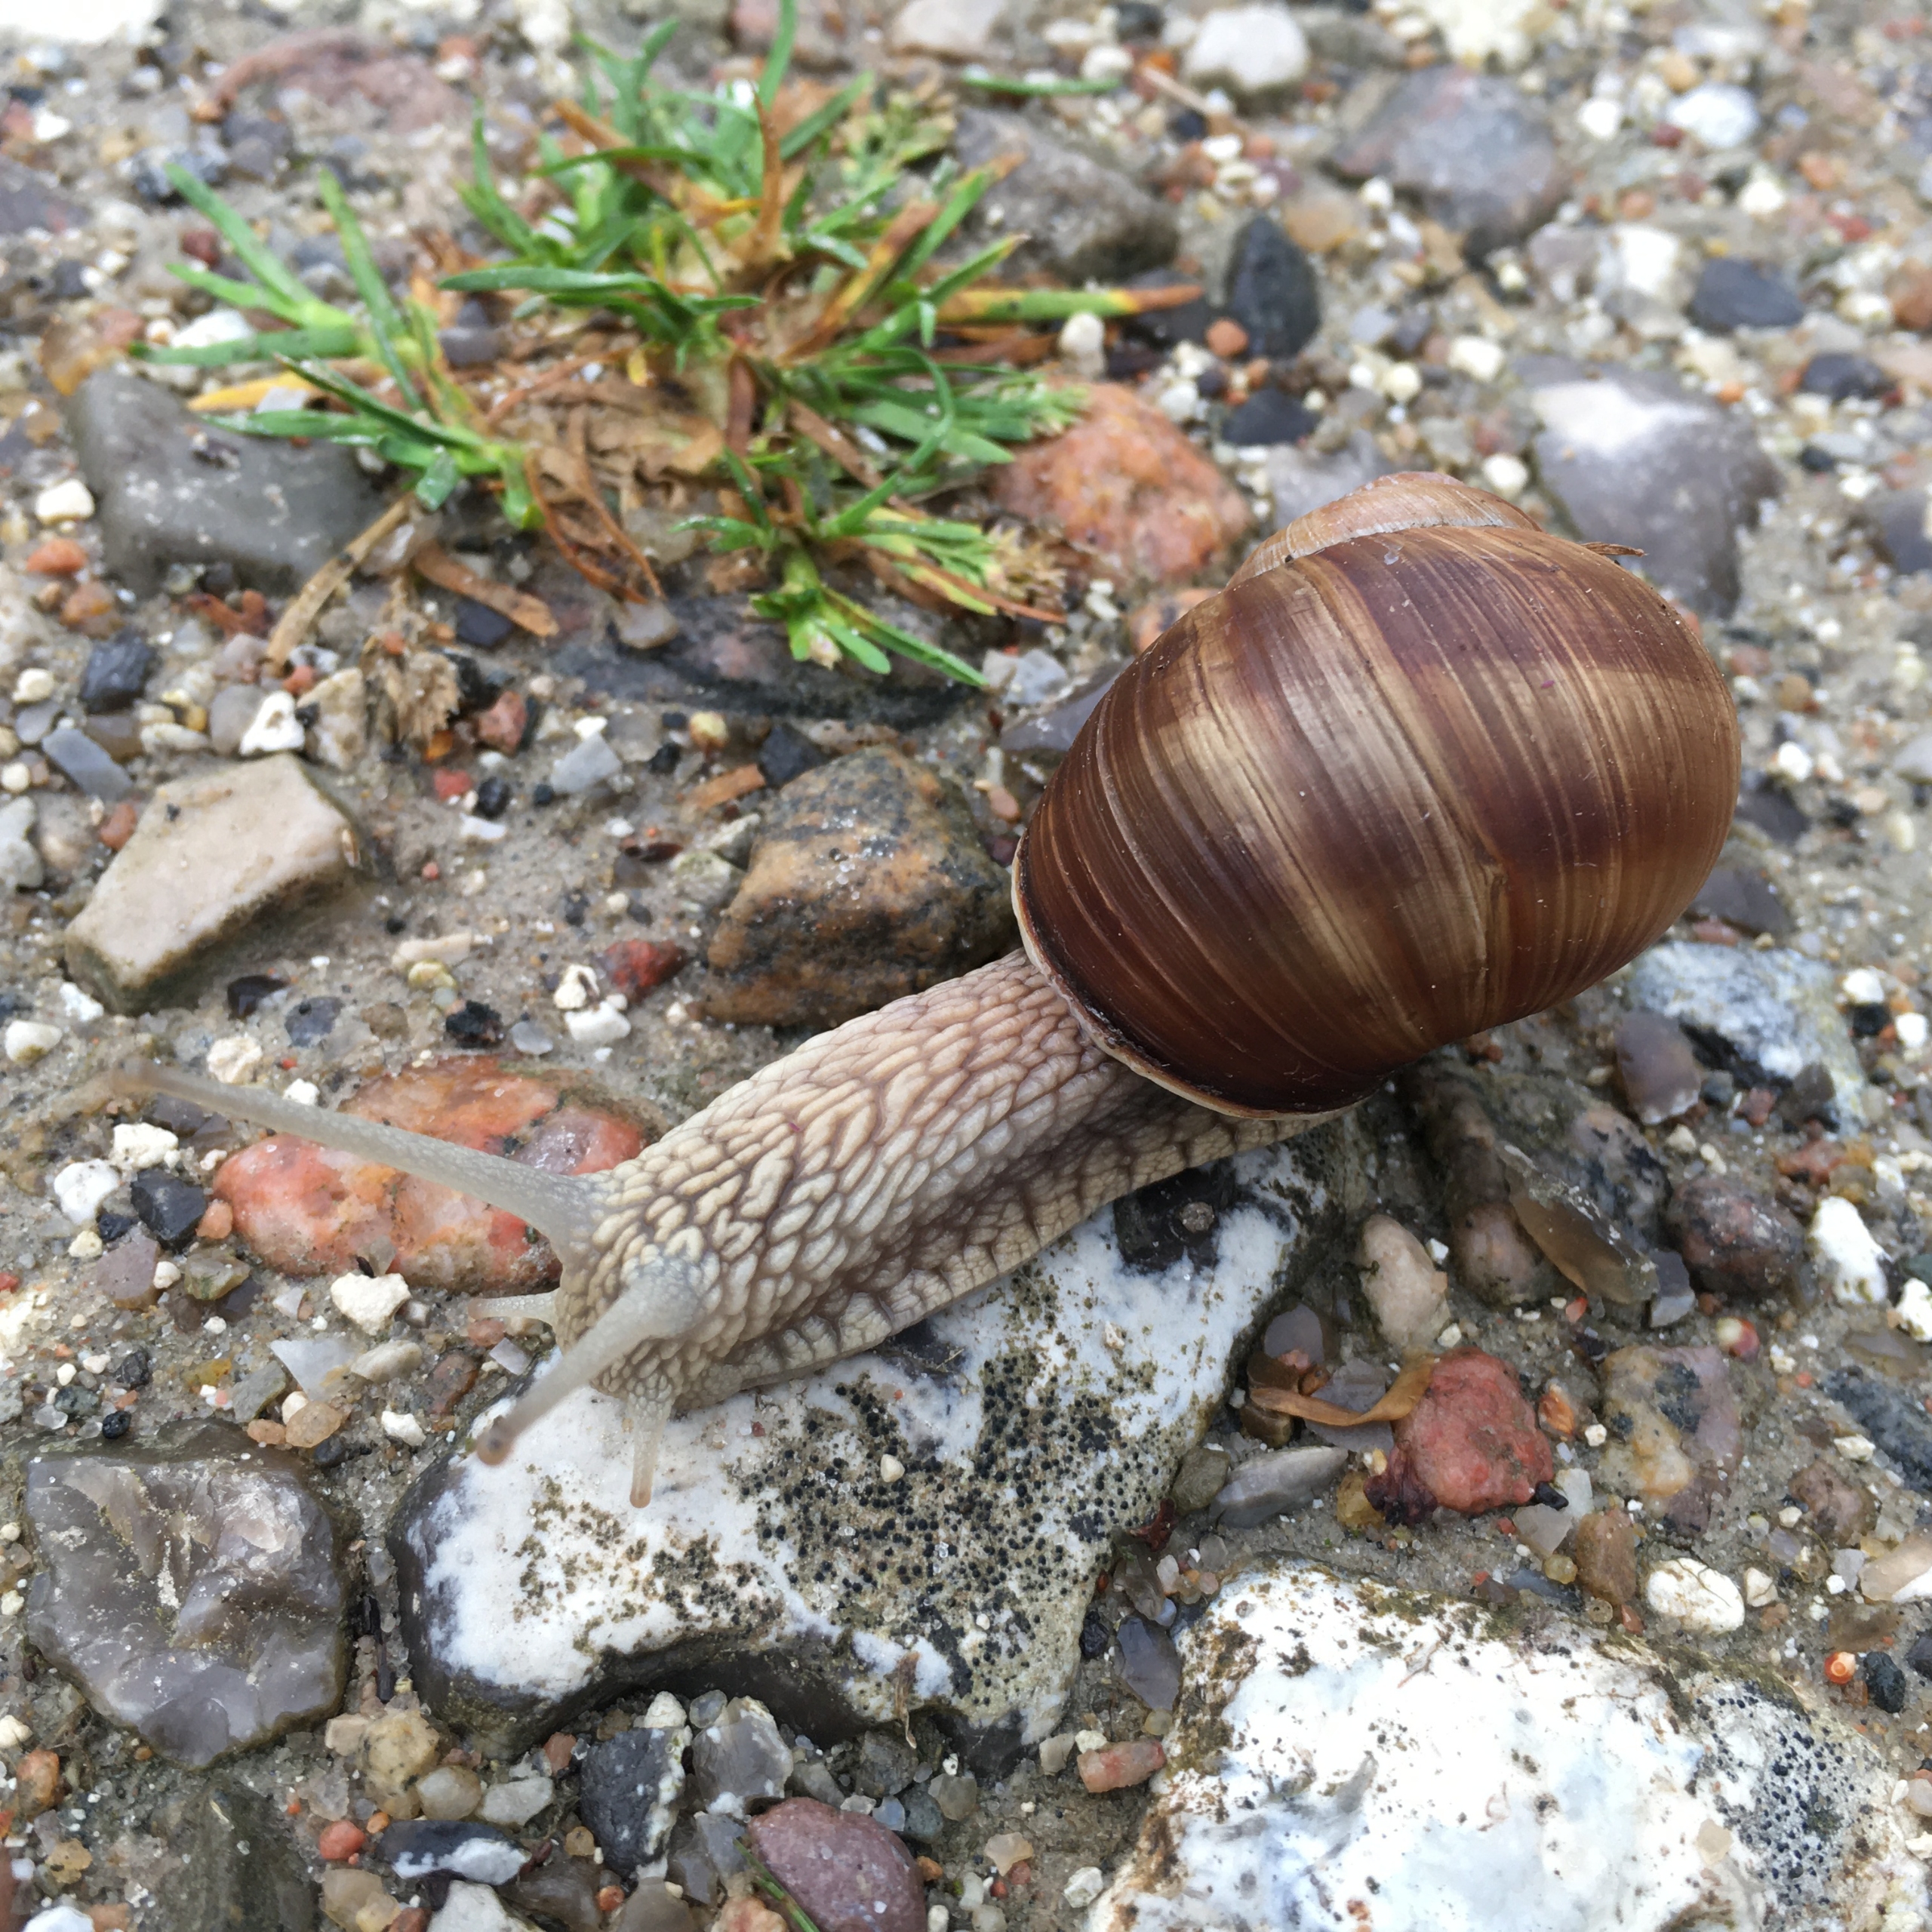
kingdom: Animalia
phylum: Mollusca
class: Gastropoda
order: Stylommatophora
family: Helicidae
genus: Helix
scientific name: Helix pomatia
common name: Vinbjergsnegl
